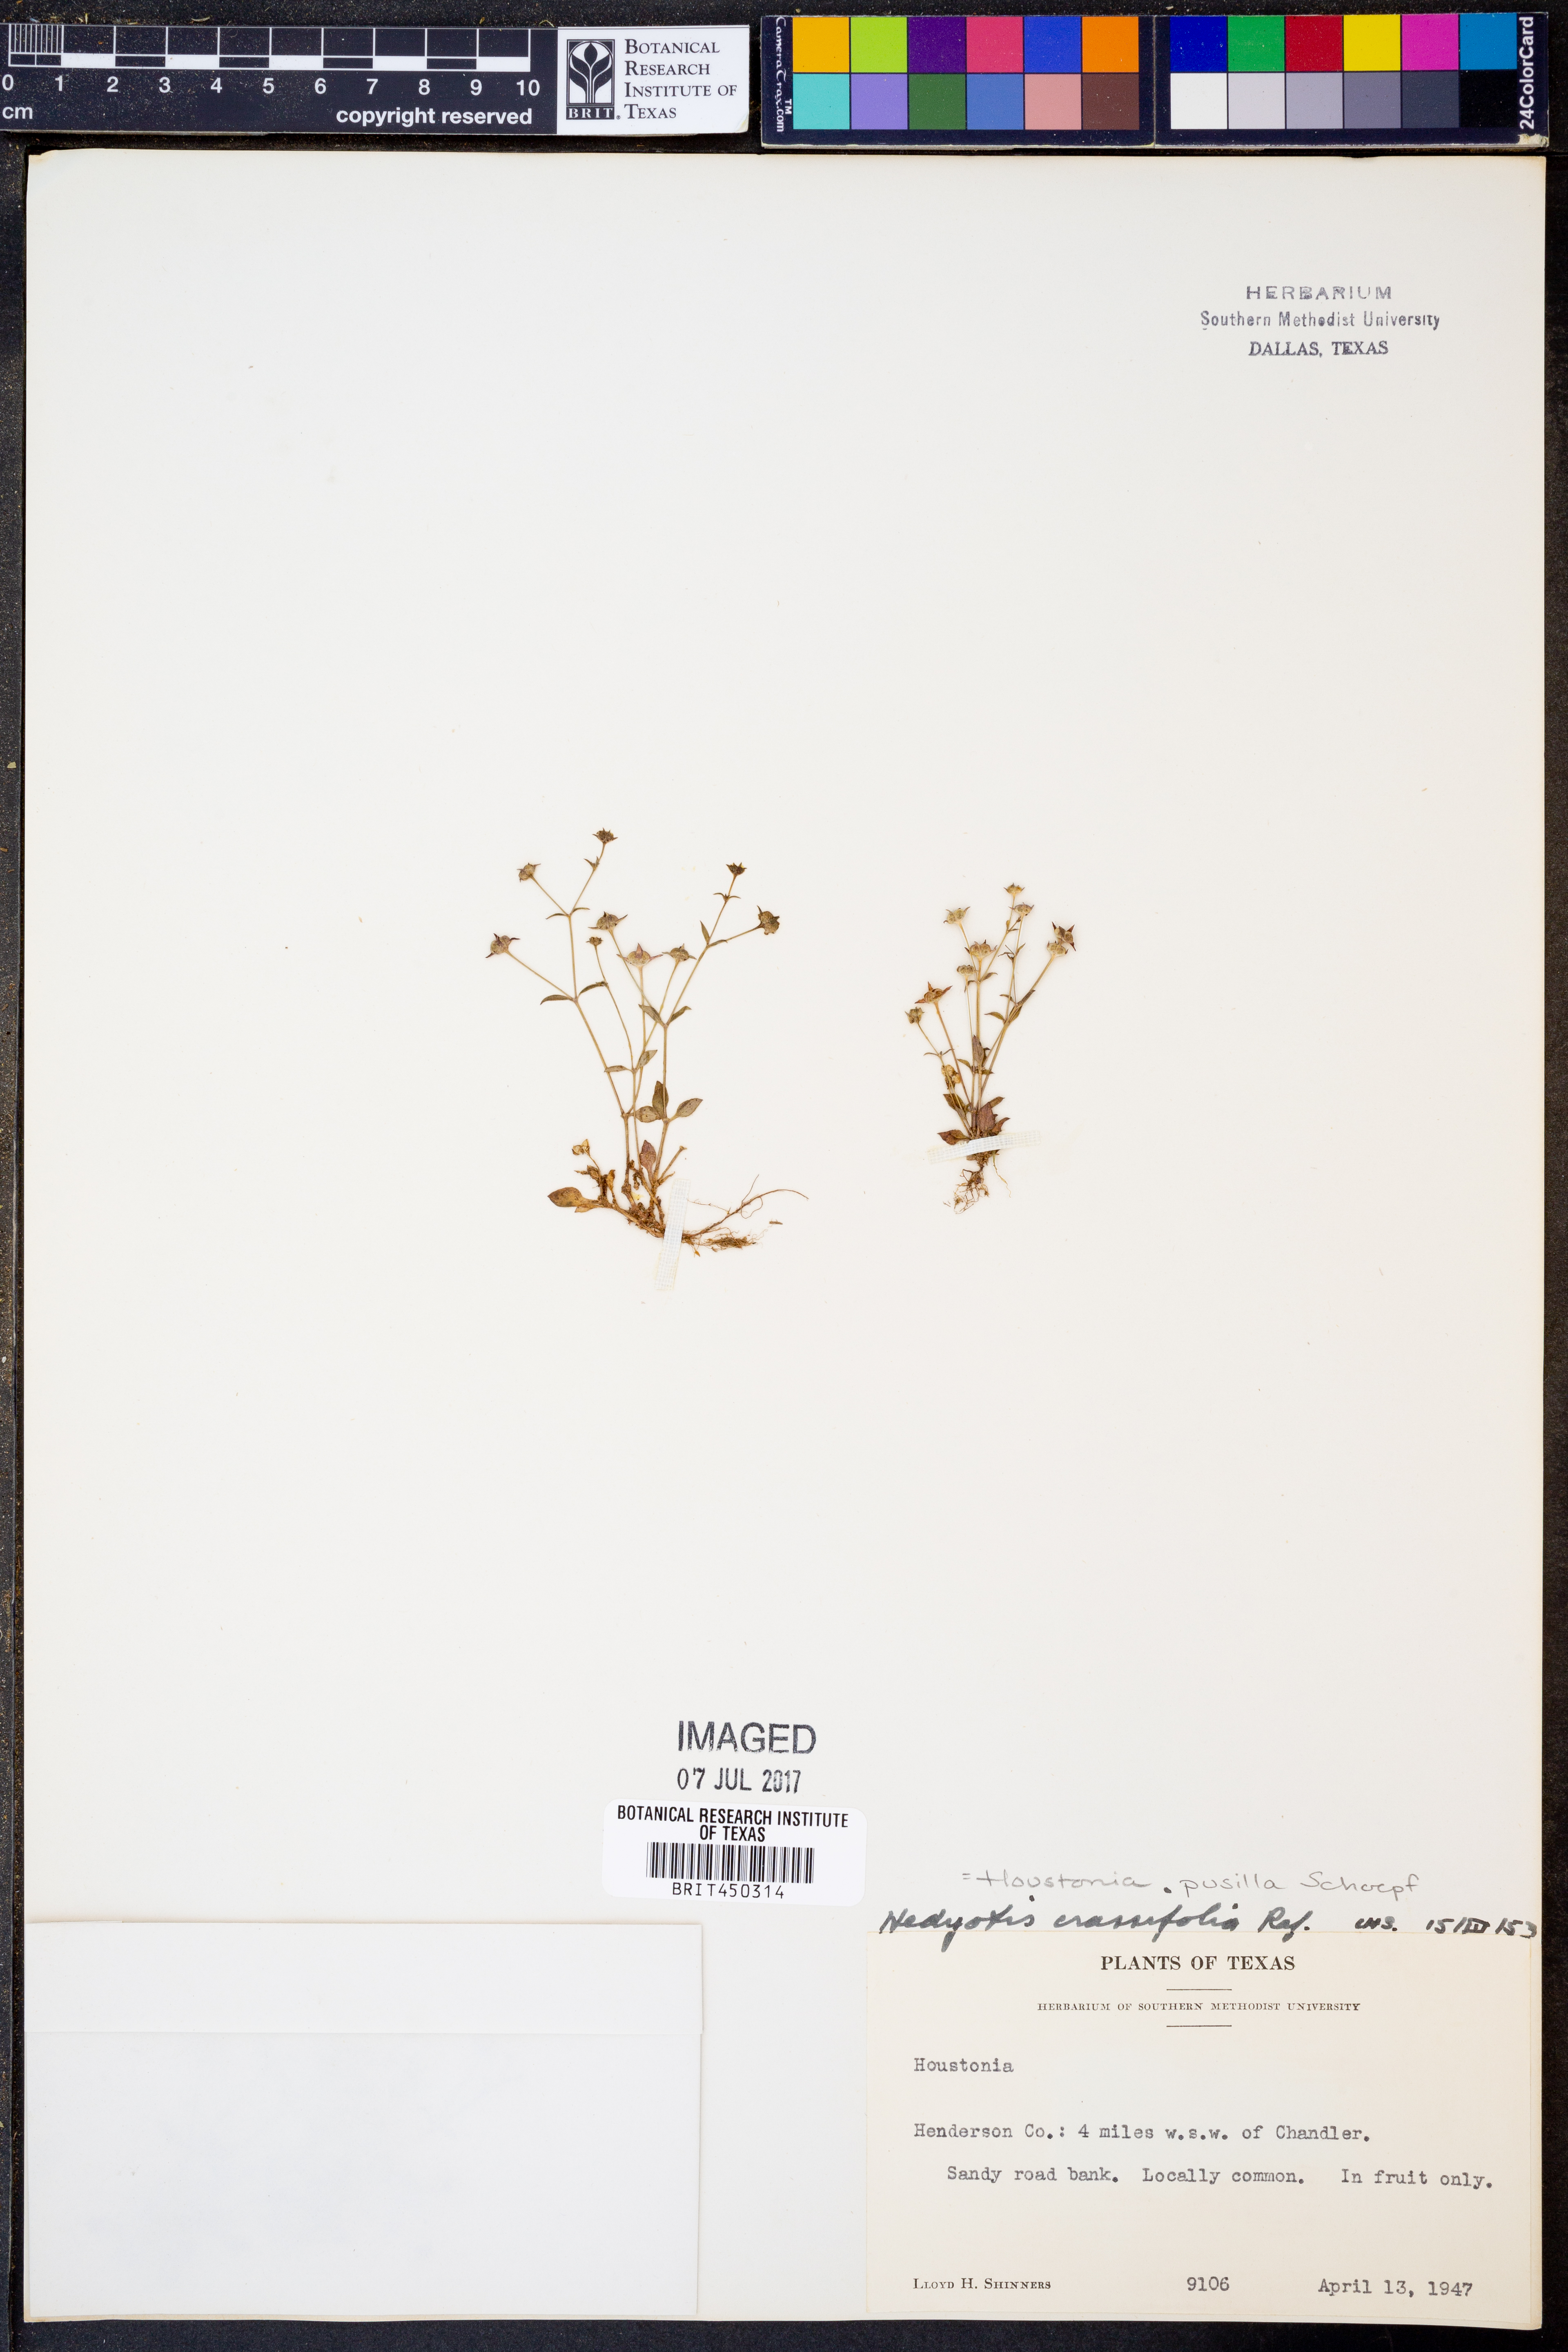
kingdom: Plantae
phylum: Tracheophyta
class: Magnoliopsida
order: Gentianales
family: Rubiaceae
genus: Houstonia
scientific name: Houstonia pusilla
